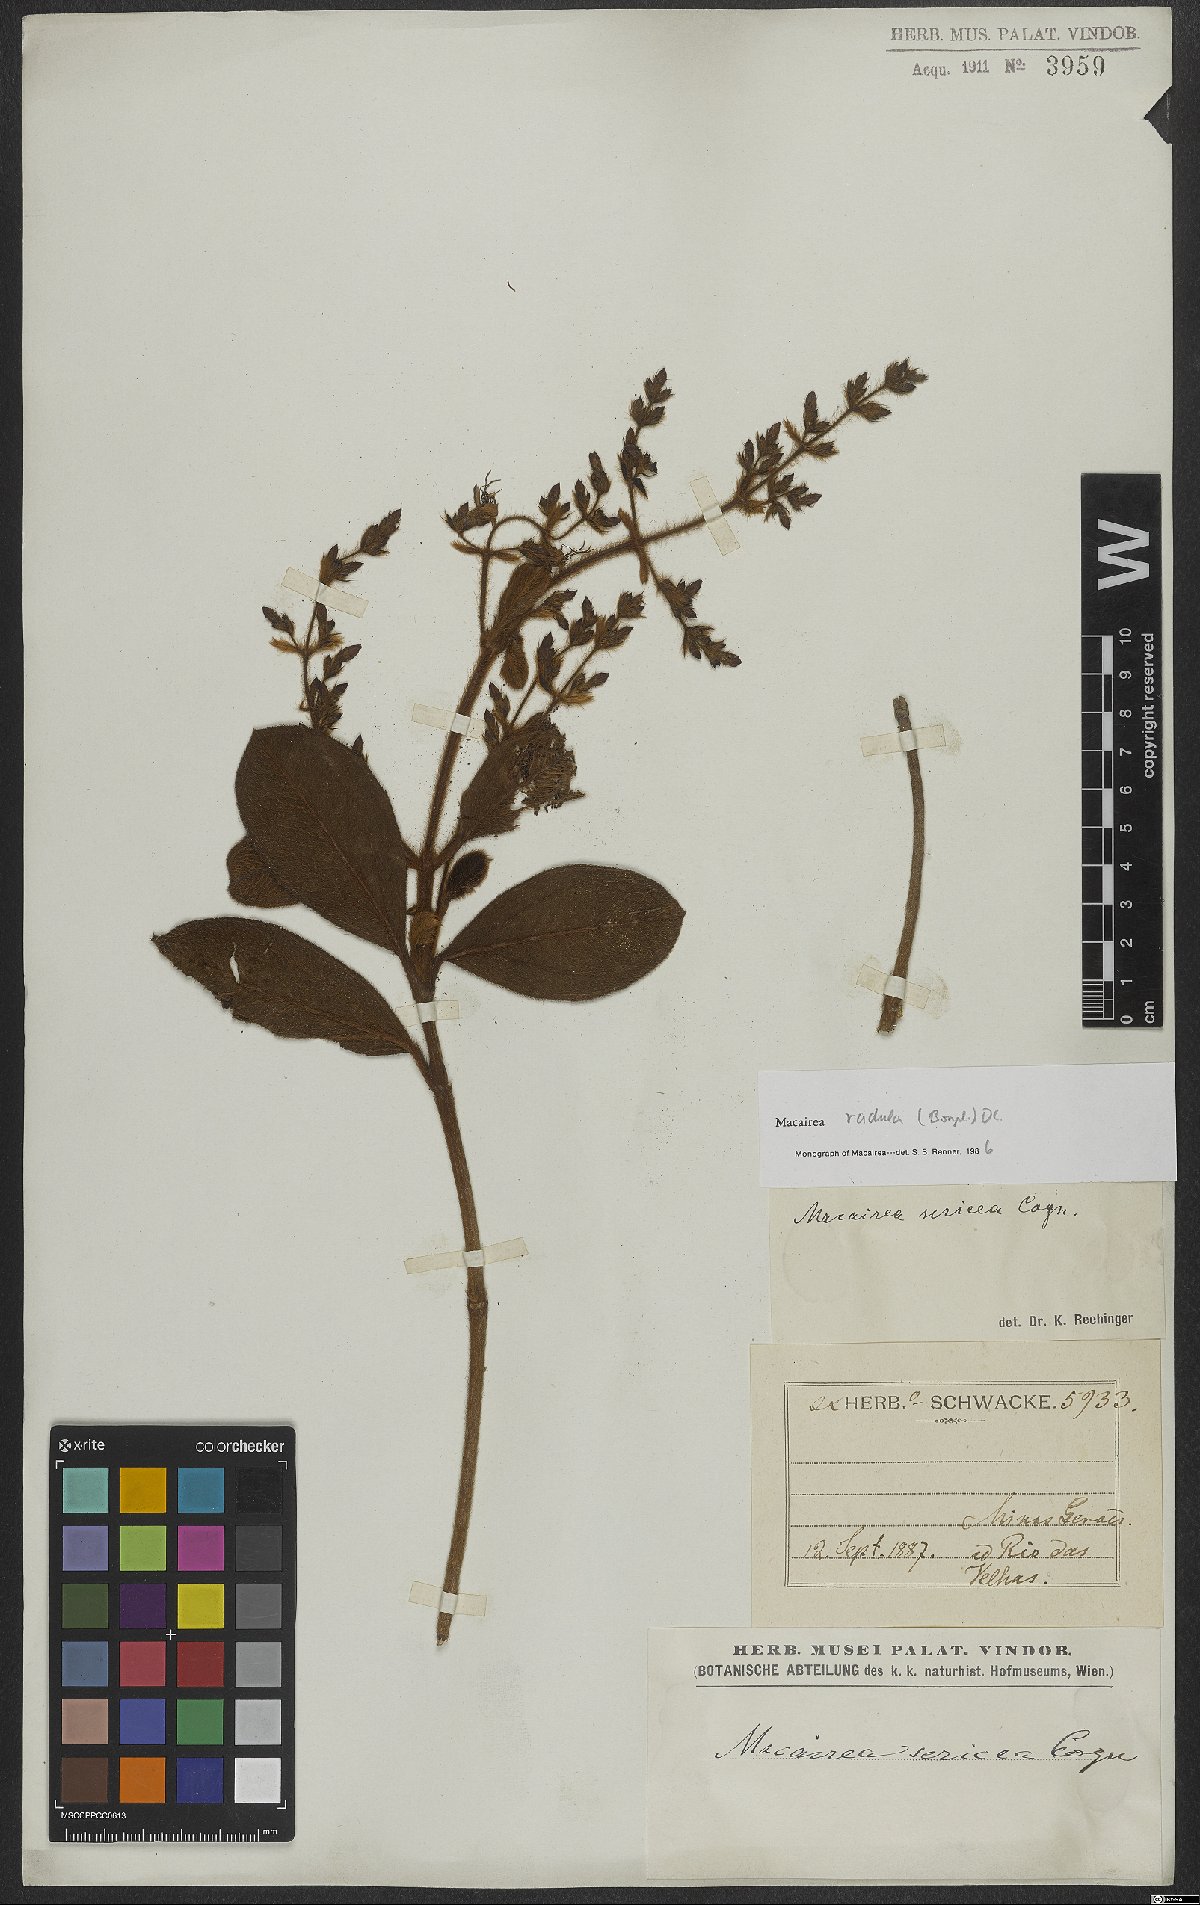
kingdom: Plantae
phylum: Tracheophyta
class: Magnoliopsida
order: Myrtales
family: Melastomataceae
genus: Macairea
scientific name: Macairea radula
